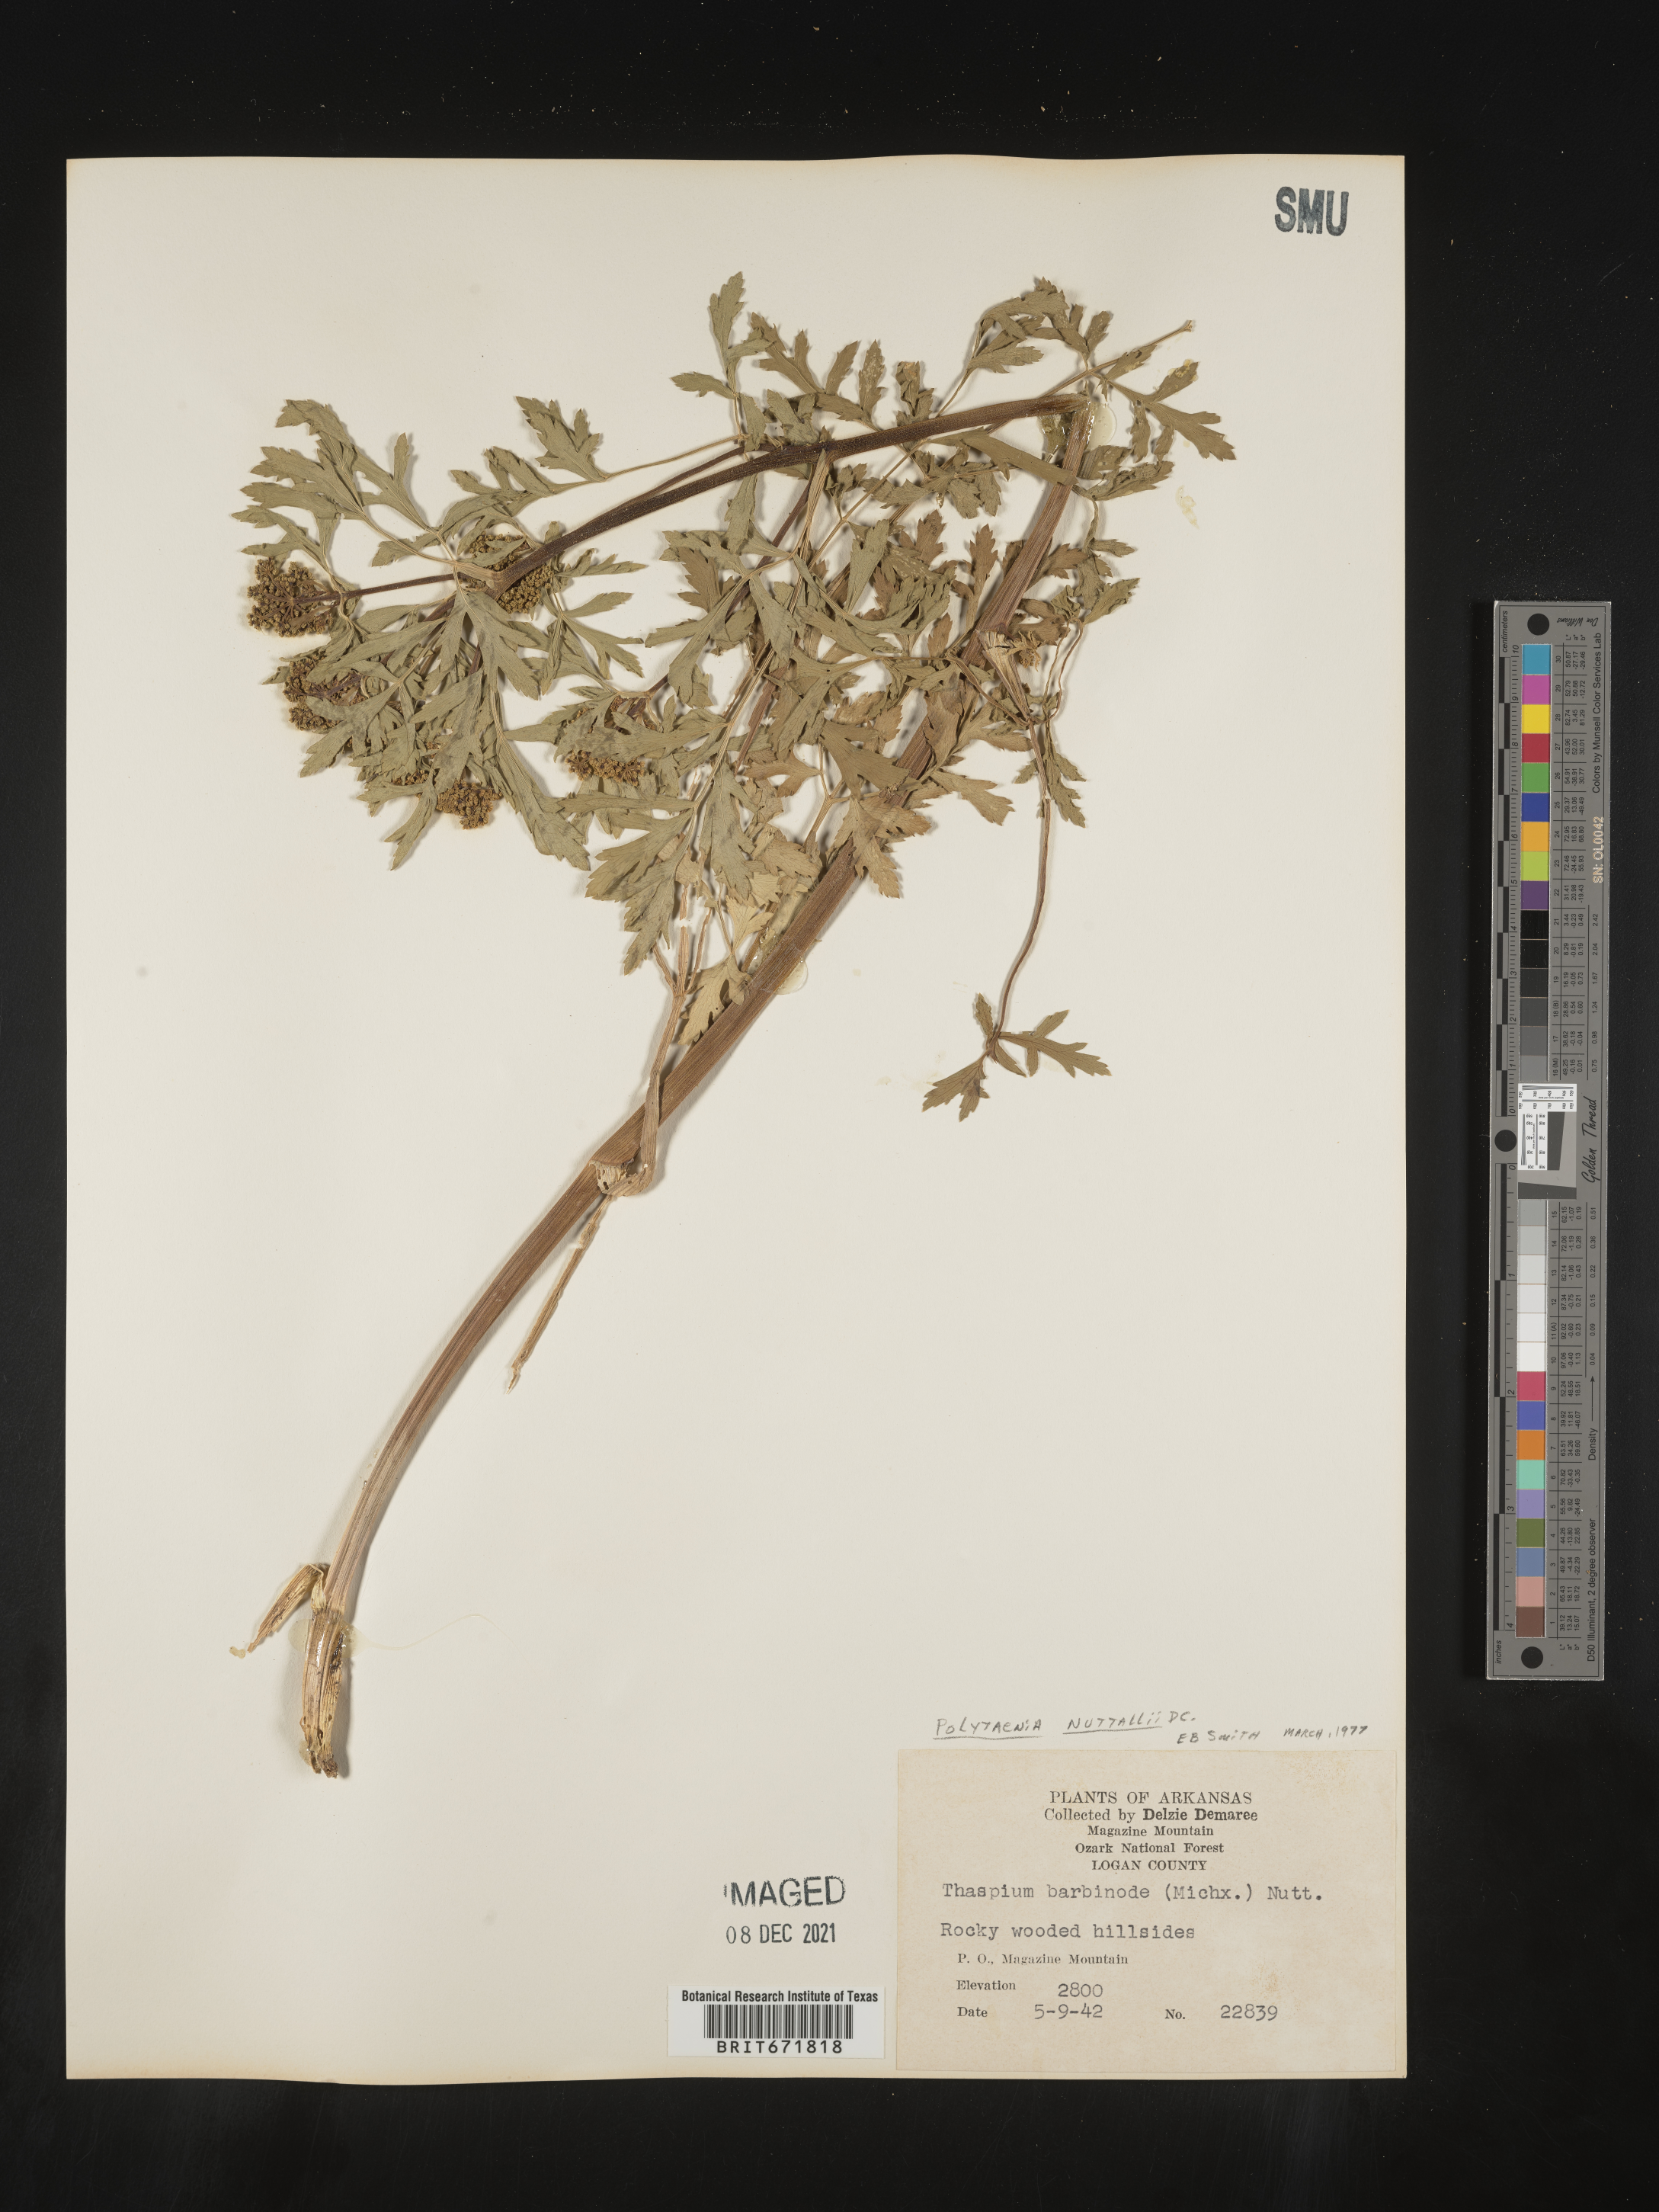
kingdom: Plantae
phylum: Tracheophyta
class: Magnoliopsida
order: Apiales
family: Apiaceae
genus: Polytaenia
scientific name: Polytaenia nuttallii
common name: Prairie-parsley
